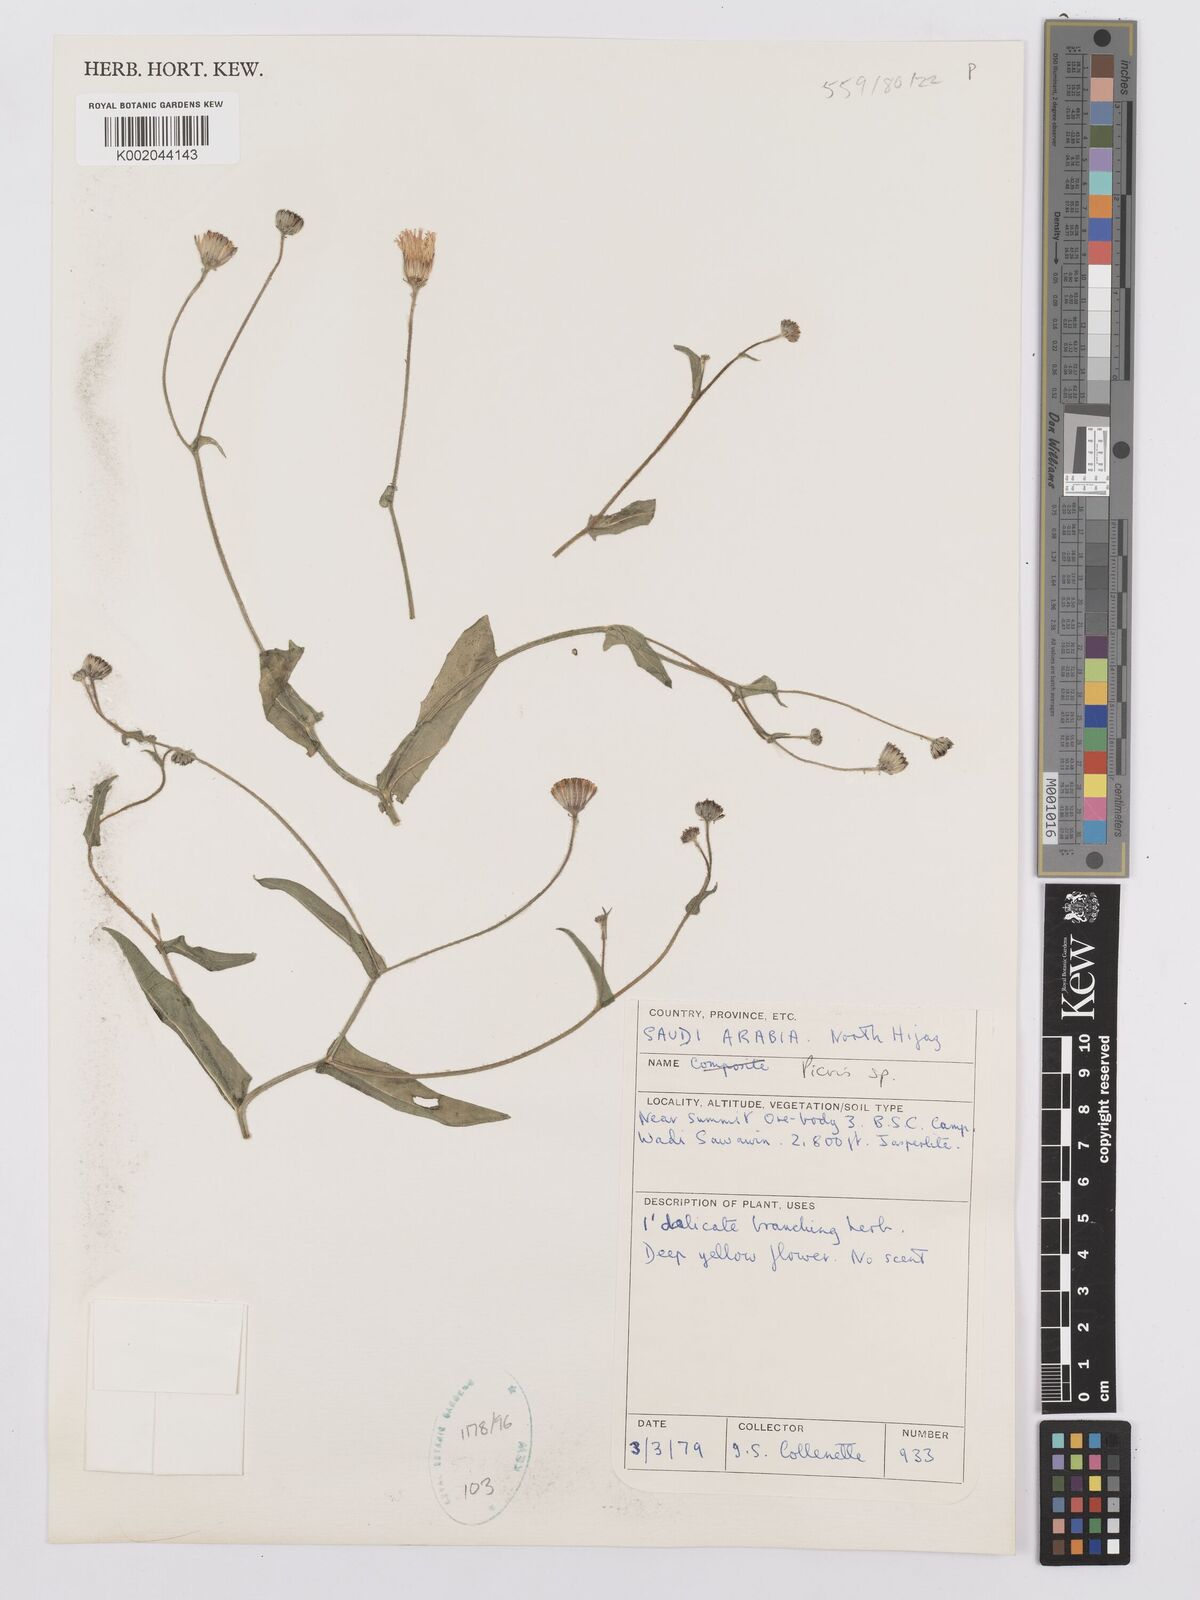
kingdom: Plantae
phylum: Tracheophyta
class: Magnoliopsida
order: Asterales
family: Asteraceae
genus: Picris
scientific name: Picris
